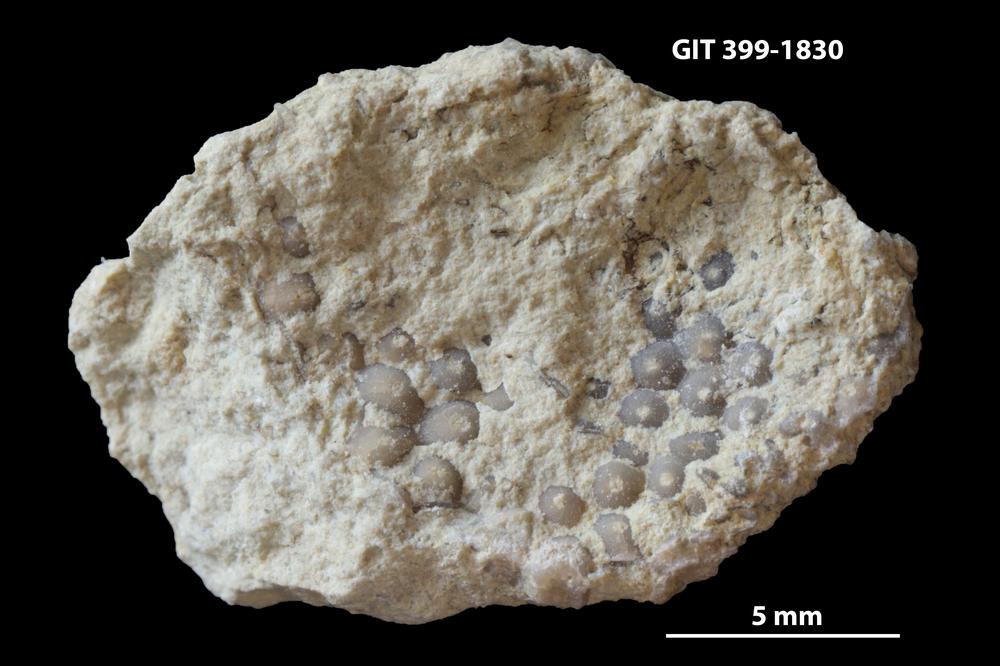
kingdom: Plantae
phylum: Chlorophyta
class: Ulvophyceae
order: Cyclocrinales
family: Cyclocrinaceae
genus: Mastopora
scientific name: Mastopora concava
